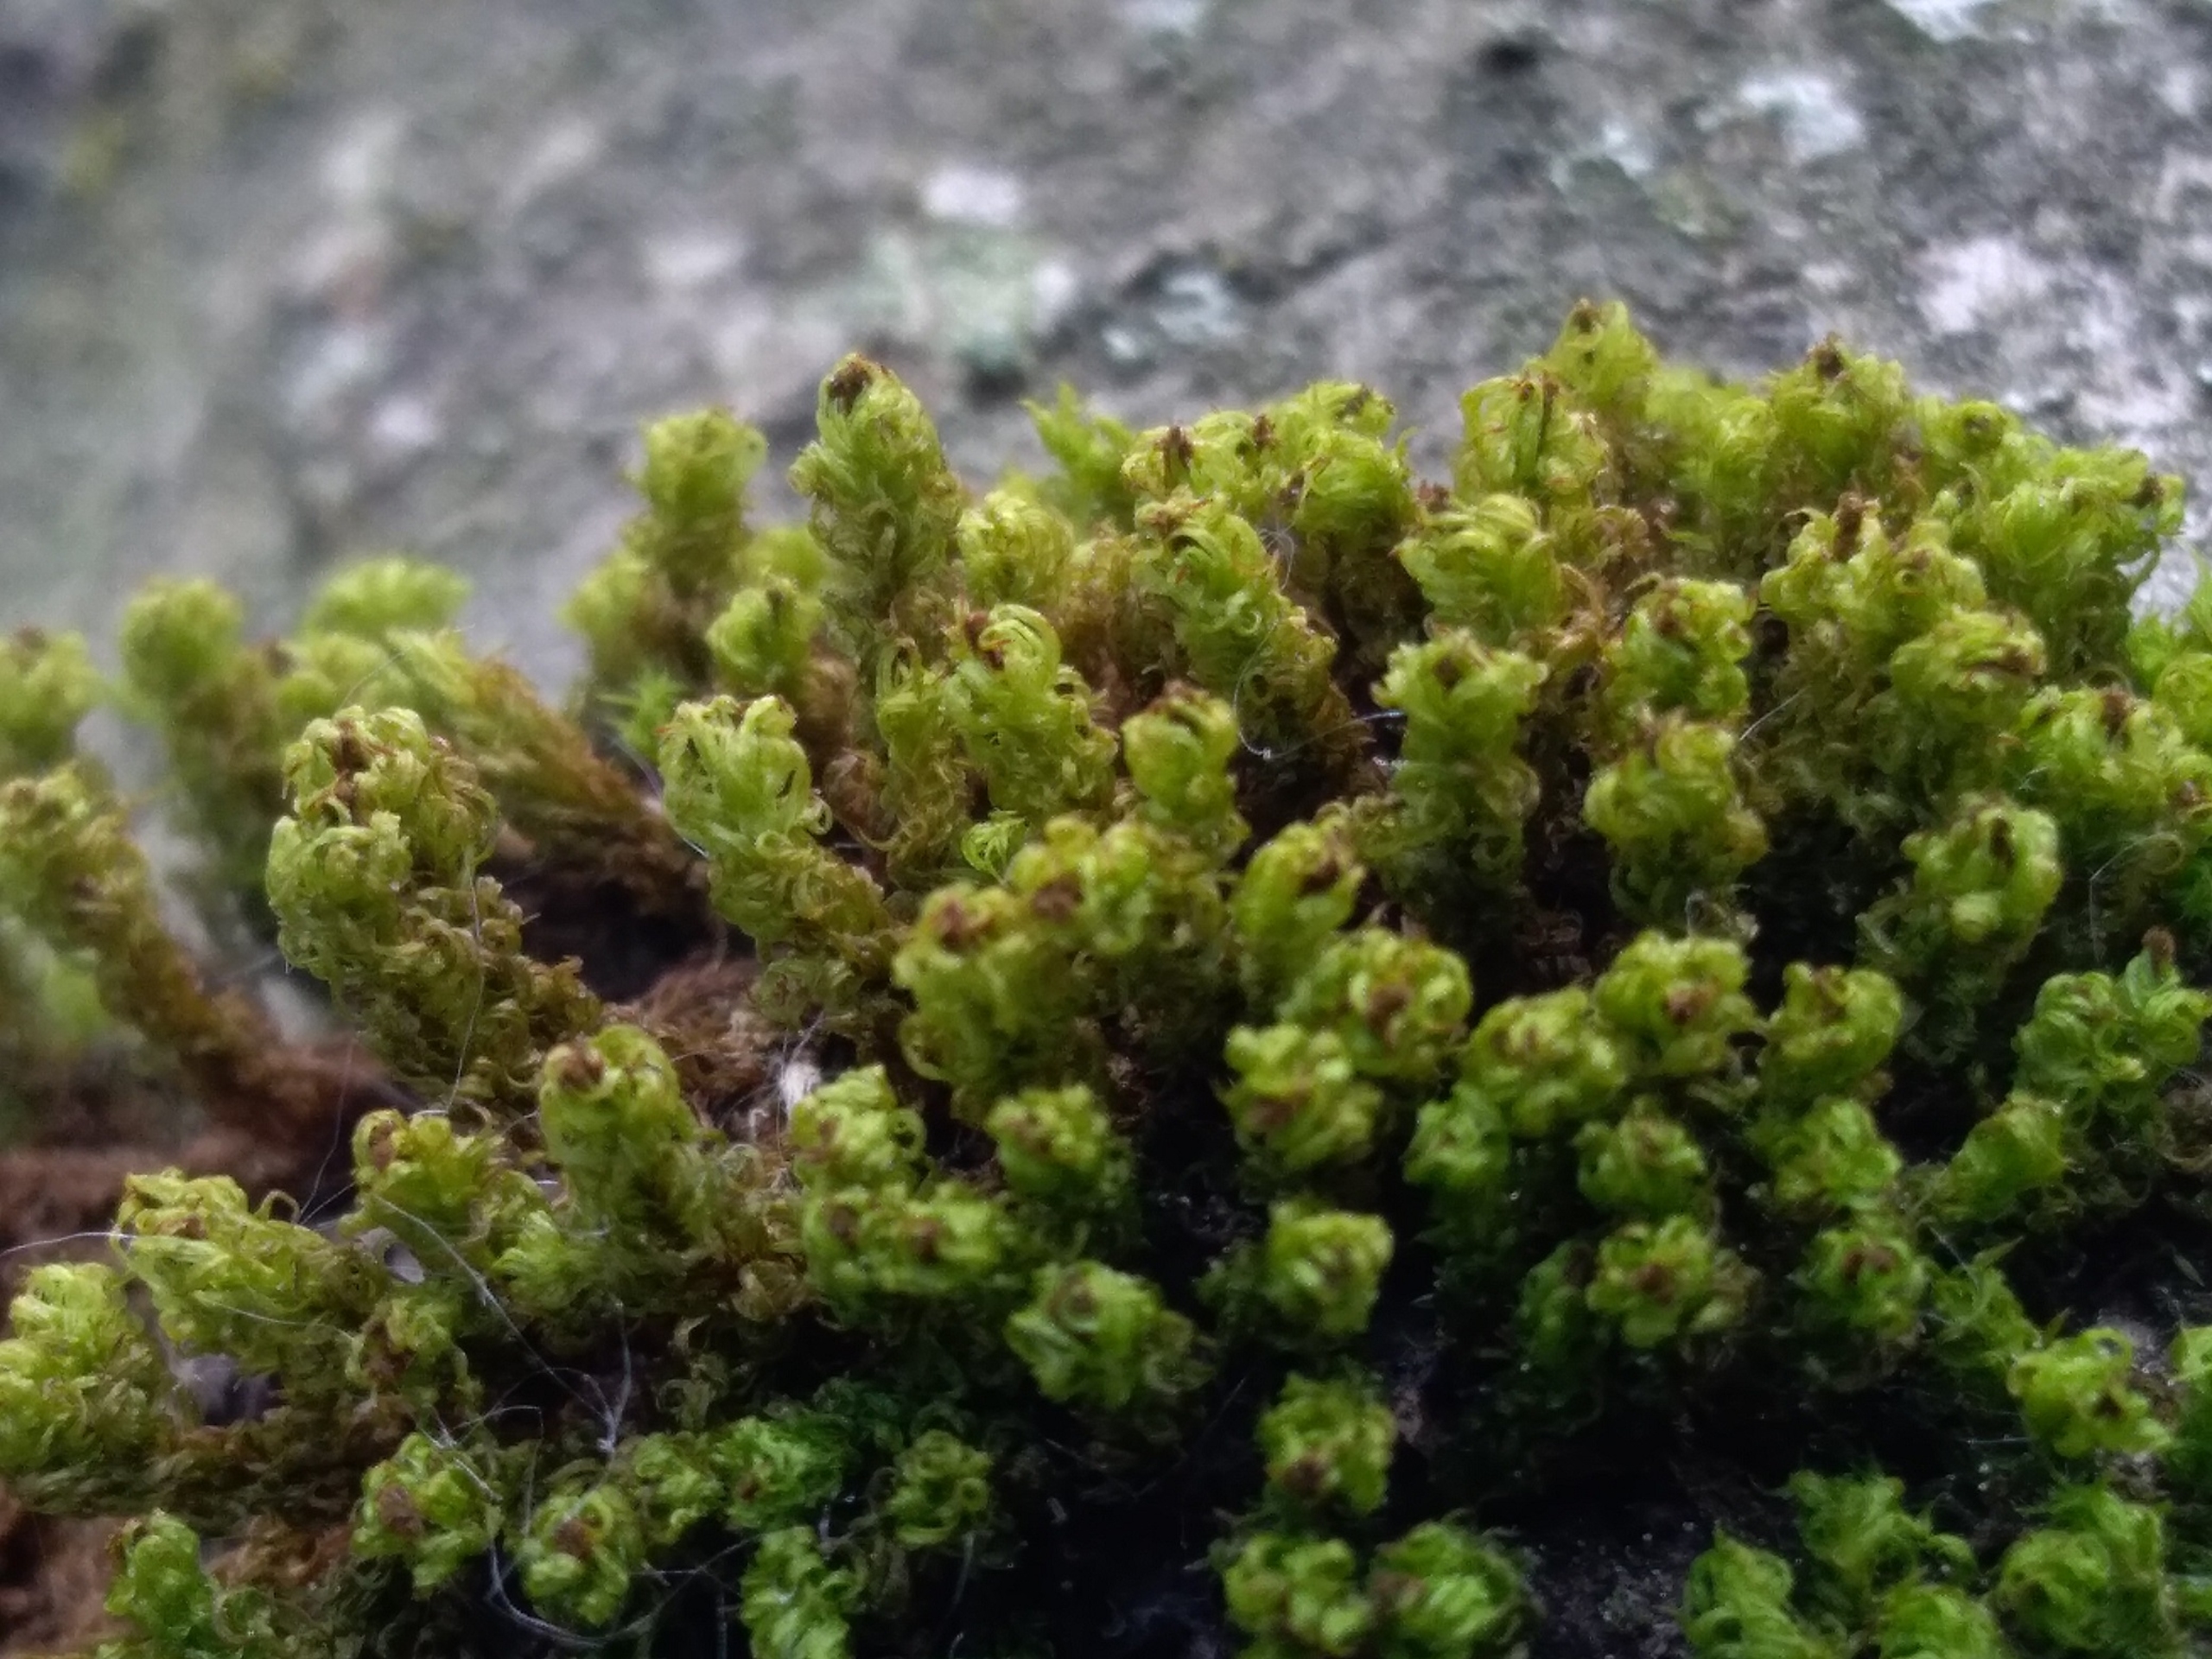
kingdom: Plantae
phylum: Bryophyta
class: Bryopsida
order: Orthotrichales
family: Orthotrichaceae
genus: Plenogemma
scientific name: Plenogemma phyllantha
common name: Stor låddenhætte
